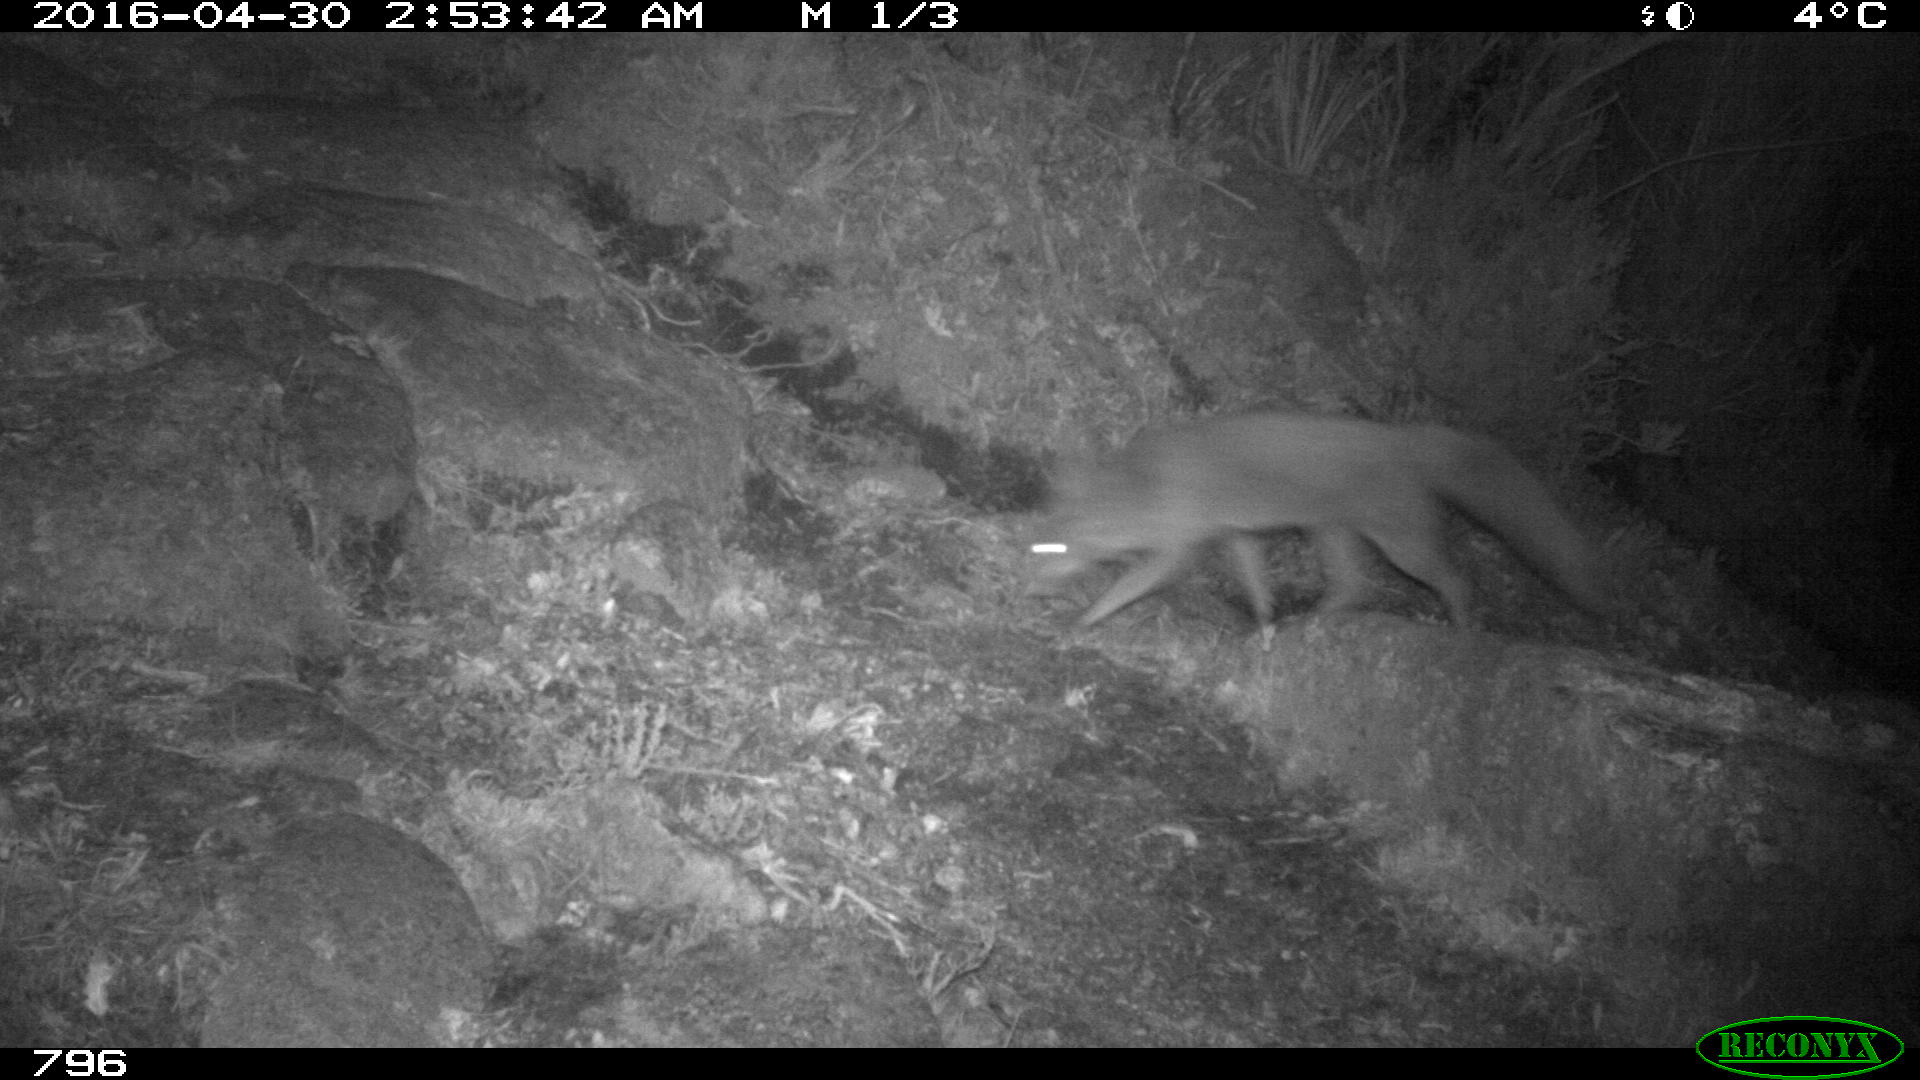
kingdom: Animalia
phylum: Chordata
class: Mammalia
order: Carnivora
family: Canidae
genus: Vulpes
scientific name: Vulpes vulpes
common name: Red fox
